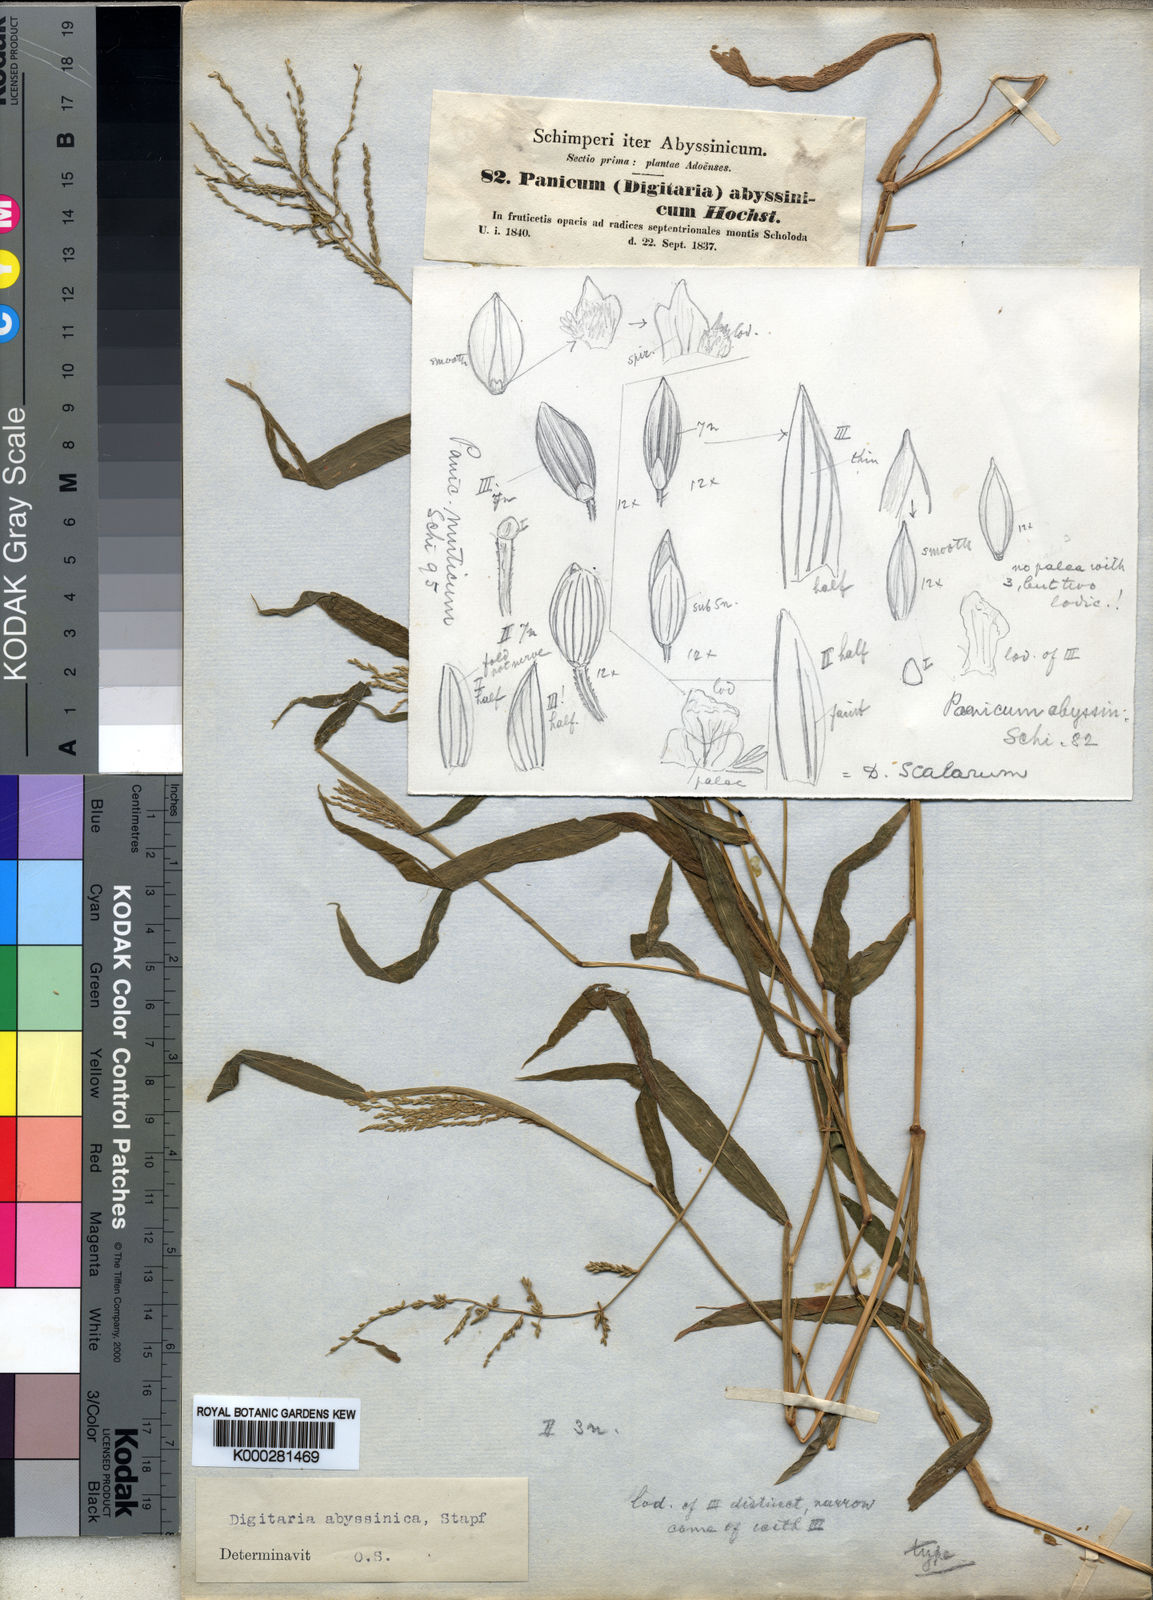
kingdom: Plantae
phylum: Tracheophyta
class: Liliopsida
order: Poales
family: Poaceae
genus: Digitaria
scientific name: Digitaria abyssinica
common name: African couchgrass
